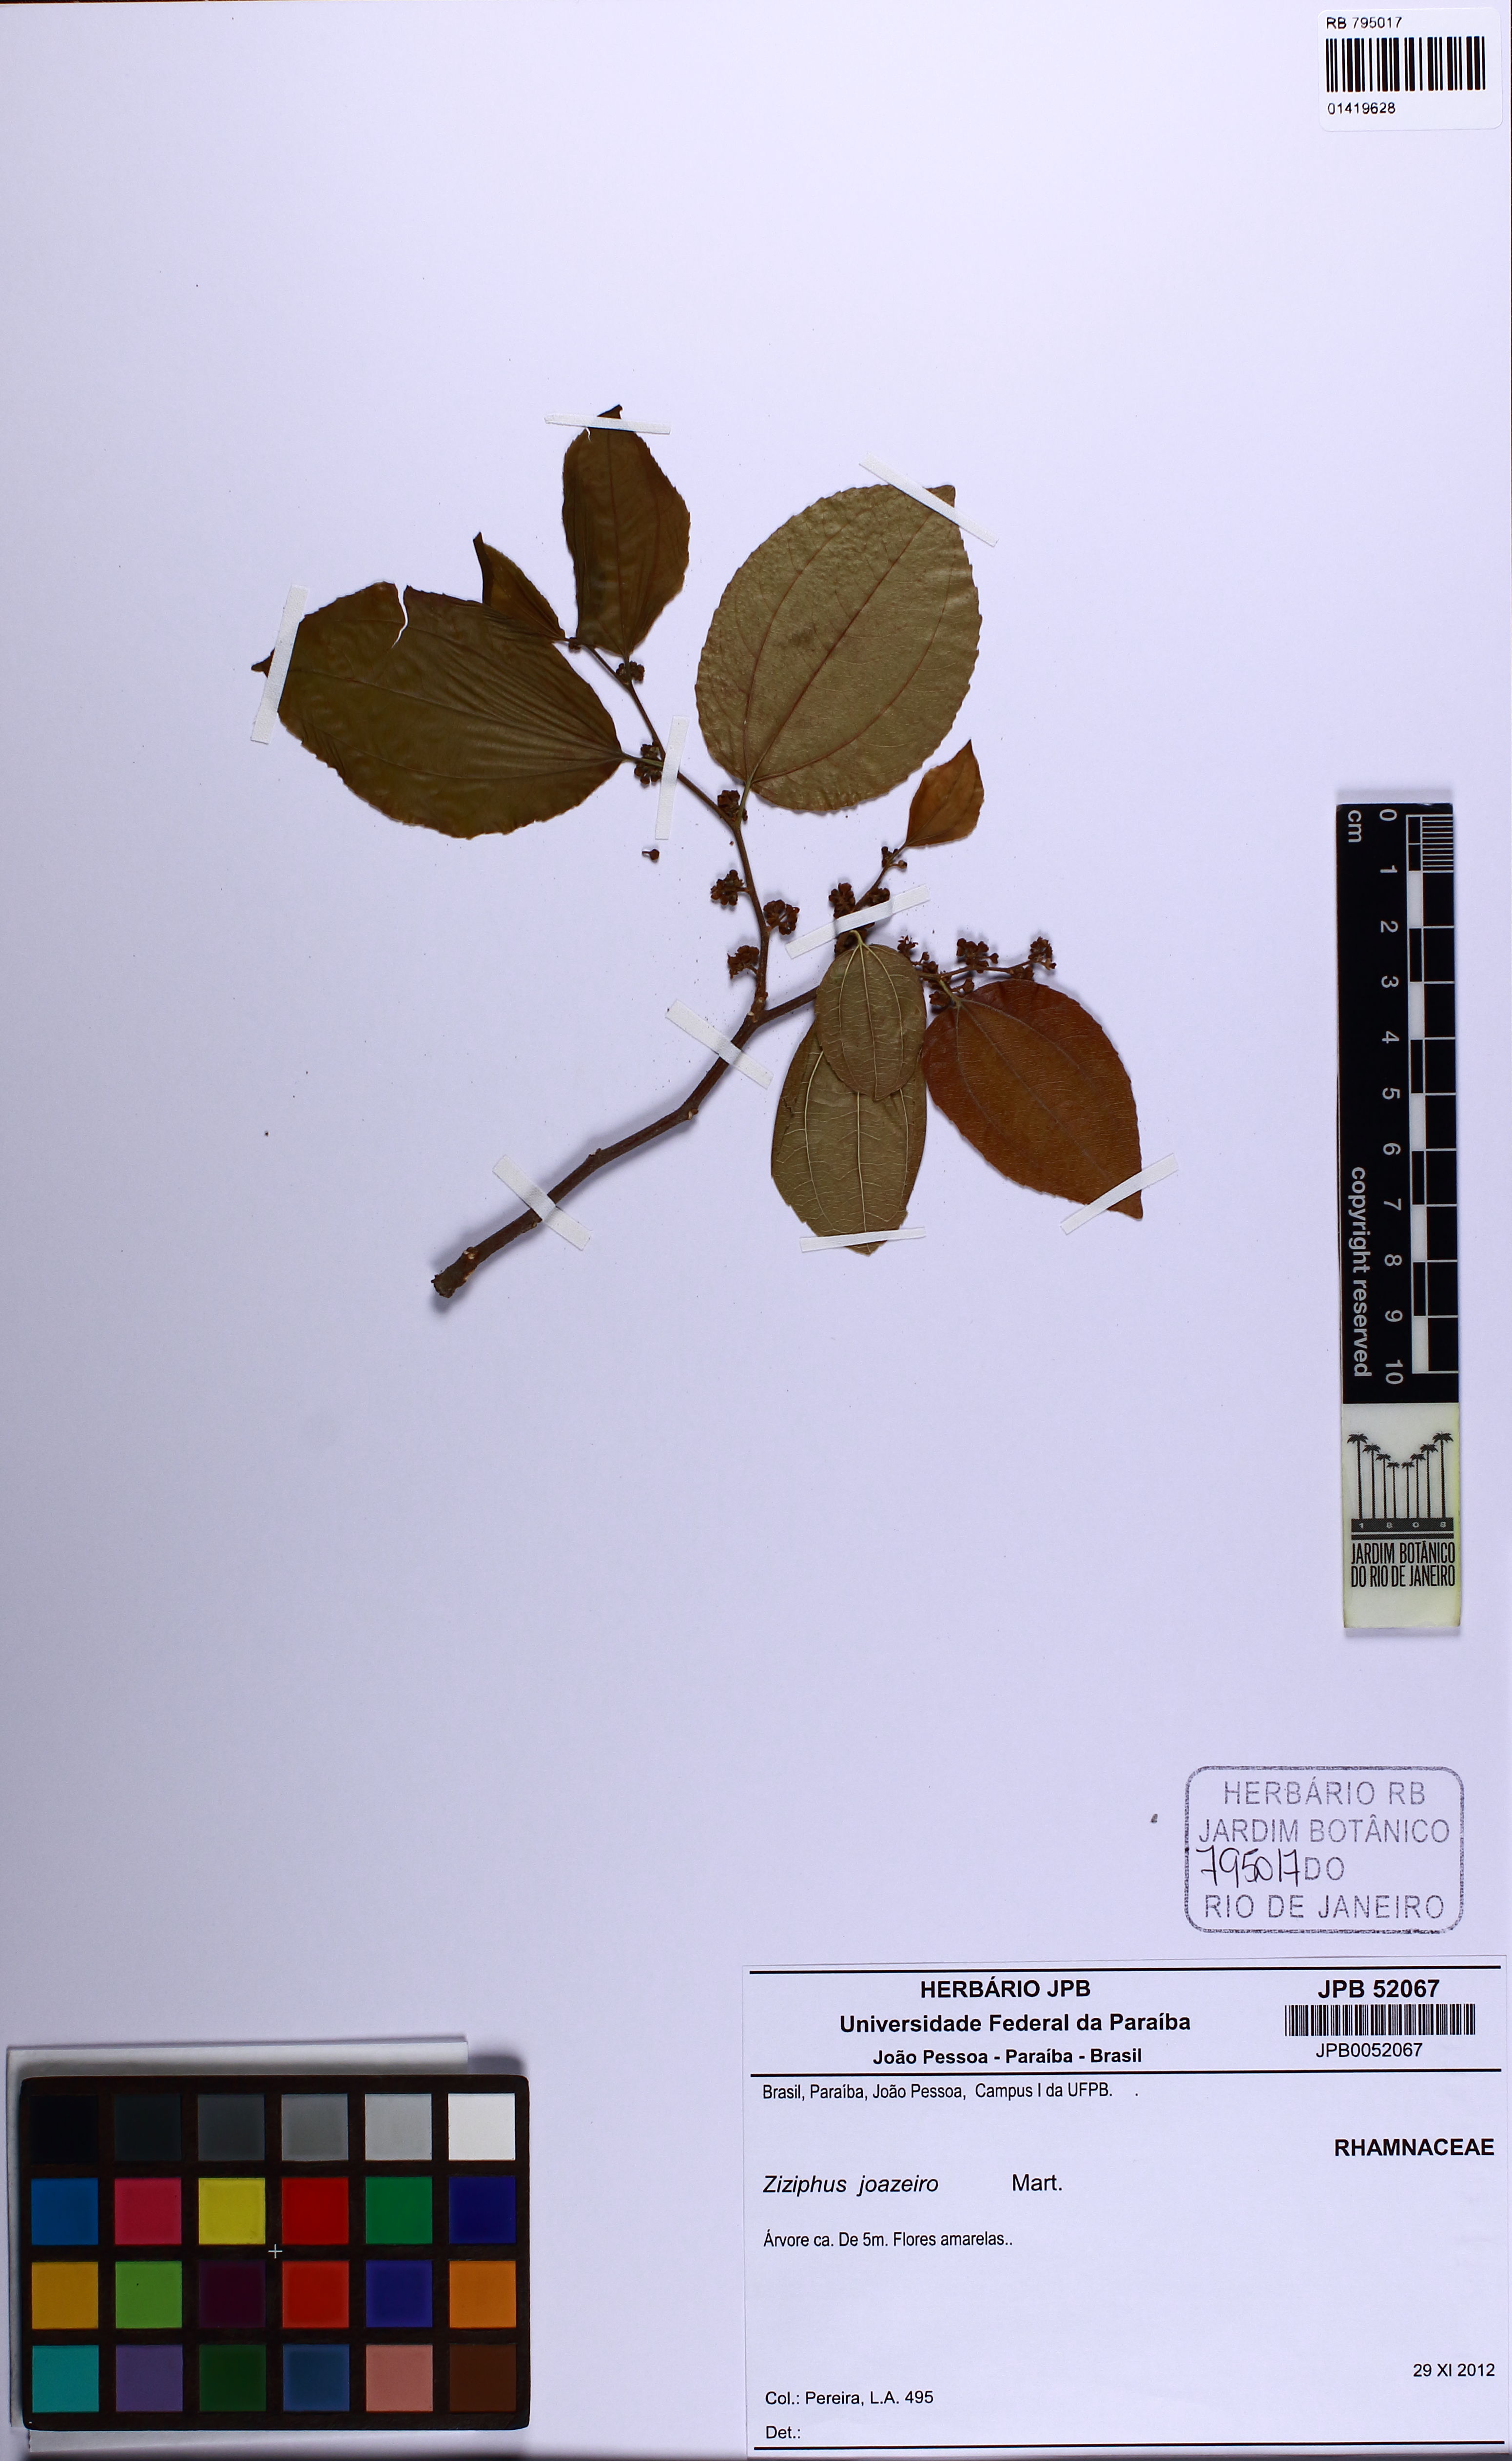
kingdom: Plantae
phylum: Tracheophyta
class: Magnoliopsida
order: Rosales
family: Rhamnaceae
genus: Sarcomphalus
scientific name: Sarcomphalus joazeiro
